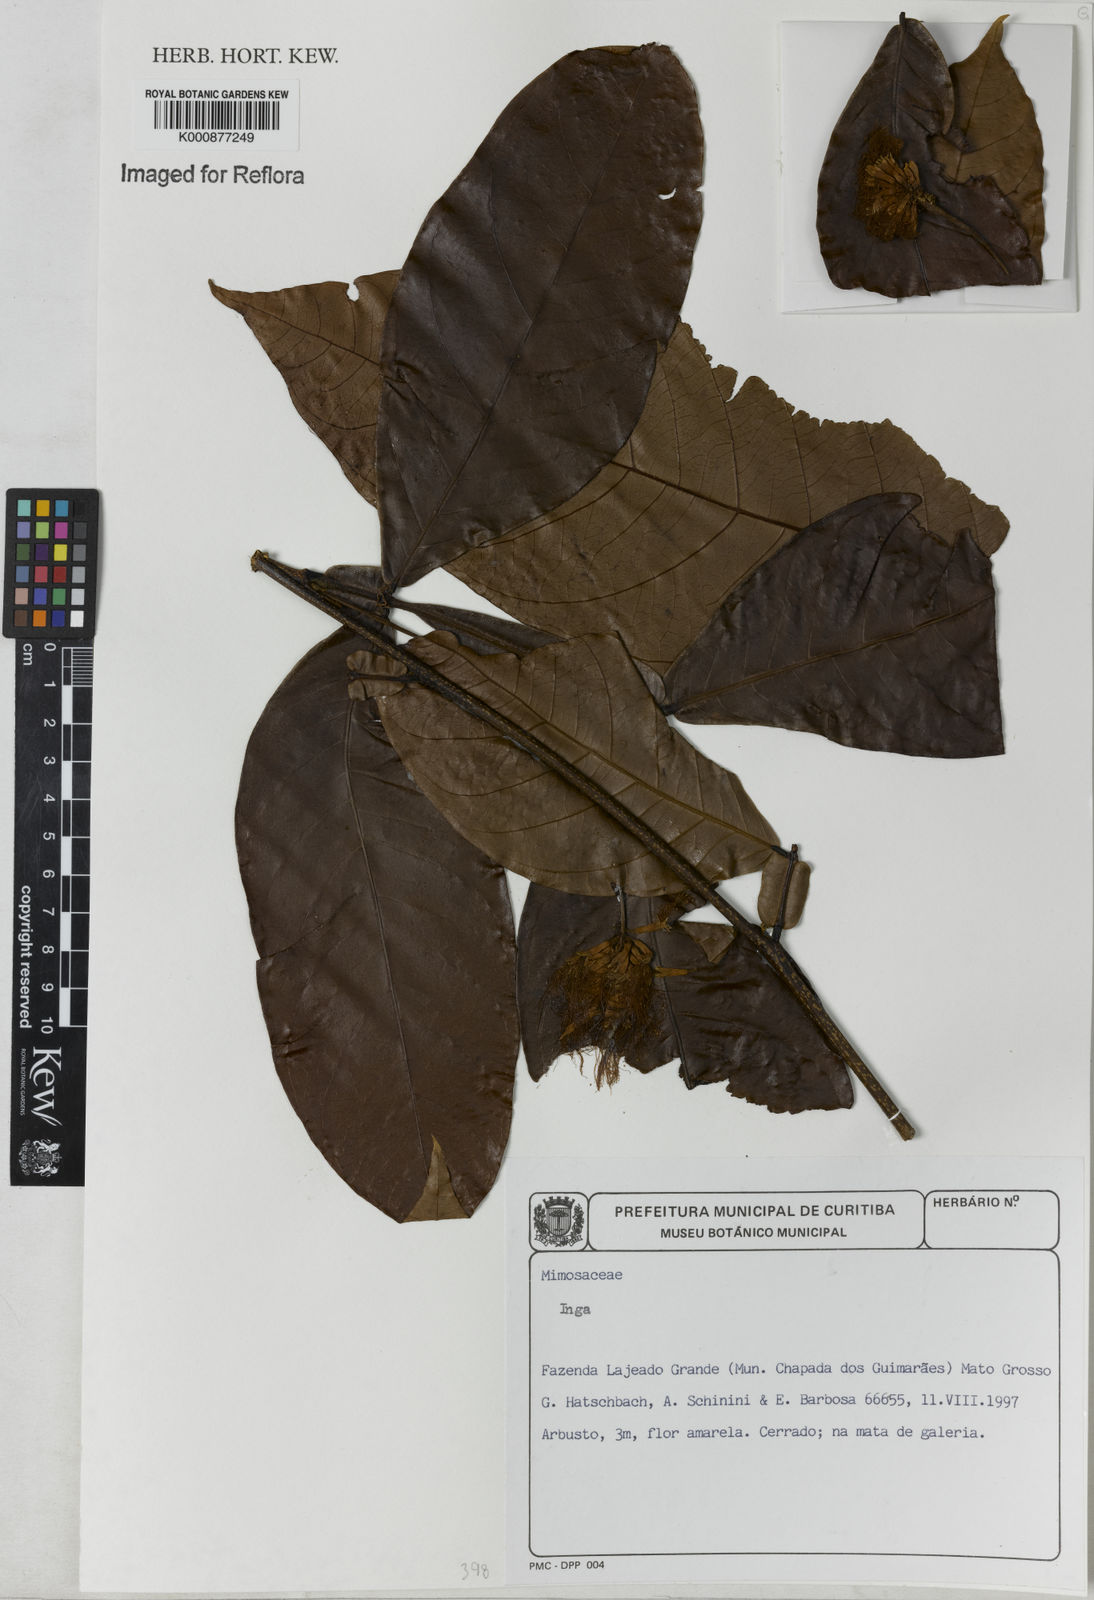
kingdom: Plantae
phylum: Tracheophyta
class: Magnoliopsida
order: Fabales
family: Fabaceae
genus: Inga
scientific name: Inga
